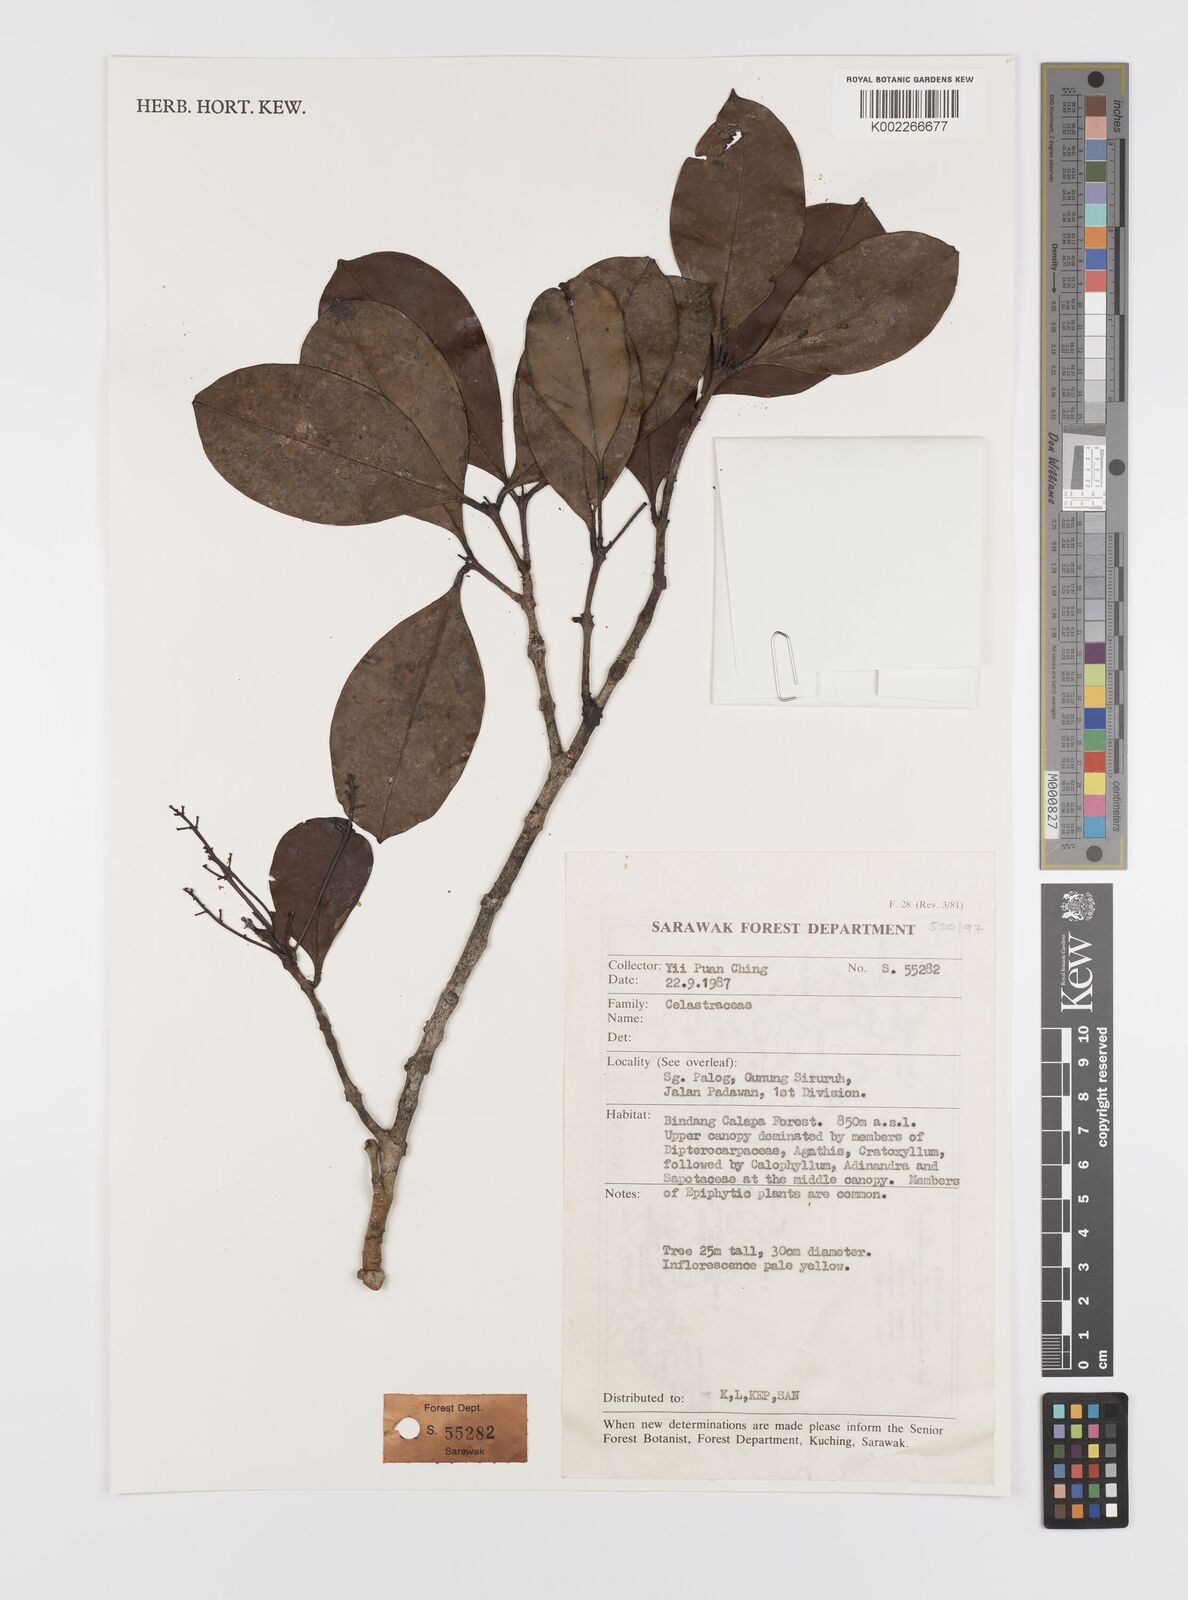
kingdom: Plantae
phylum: Tracheophyta
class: Magnoliopsida
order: Celastrales
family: Celastraceae
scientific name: Celastraceae
